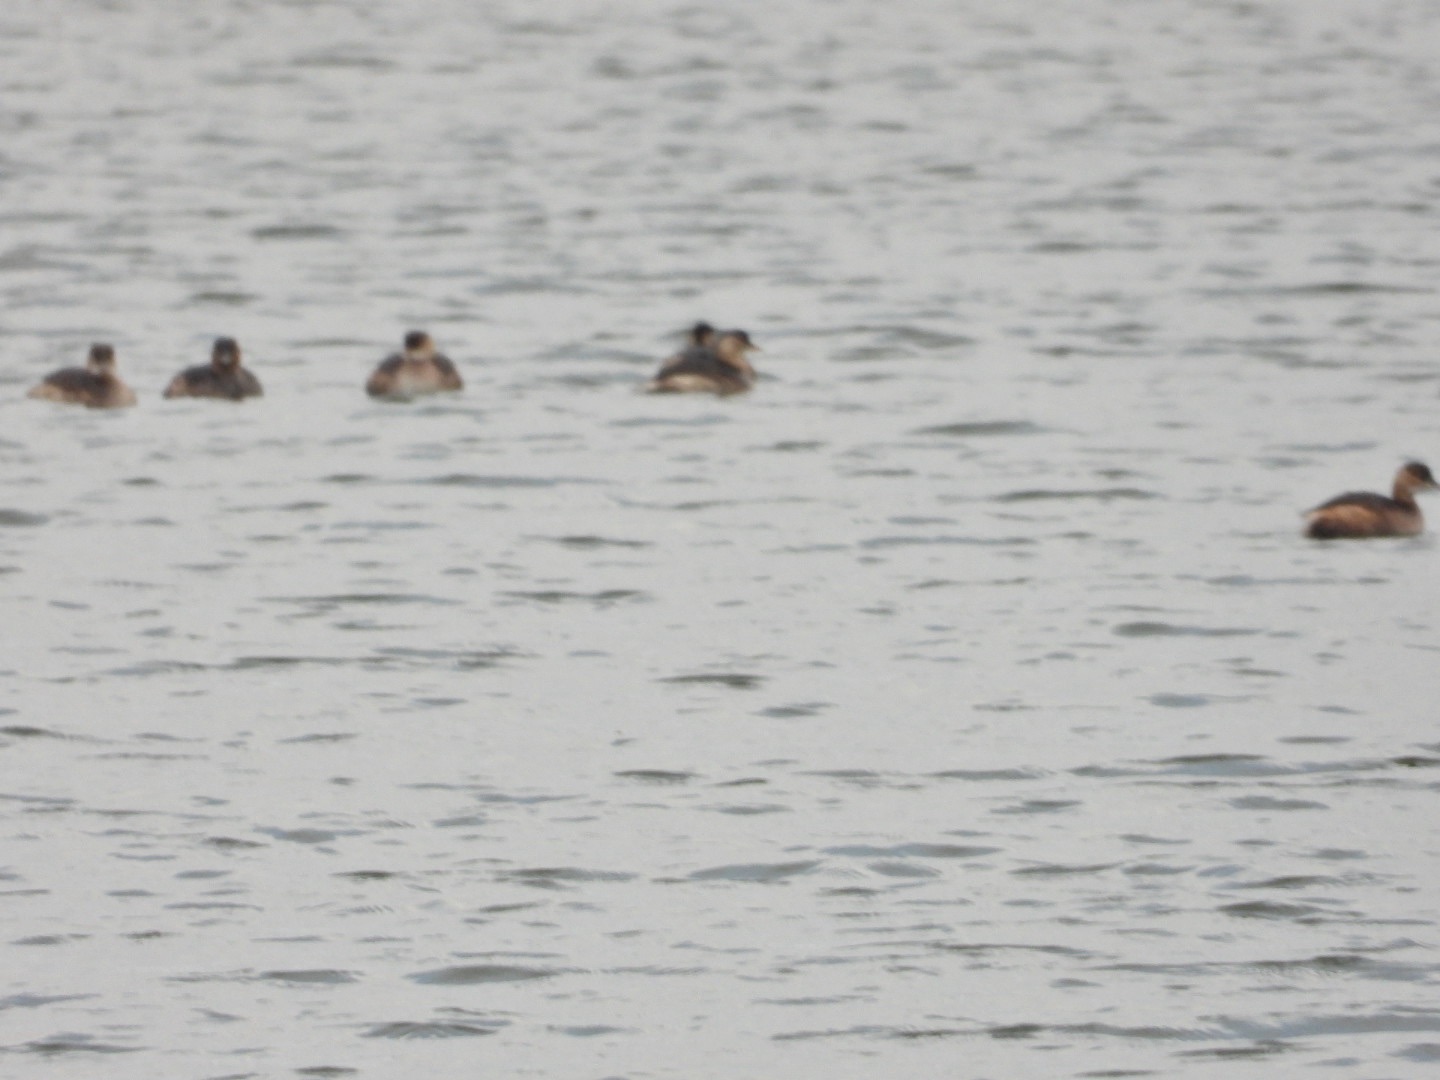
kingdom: Animalia
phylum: Chordata
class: Aves
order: Podicipediformes
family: Podicipedidae
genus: Tachybaptus
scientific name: Tachybaptus ruficollis
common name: Lille lappedykker
